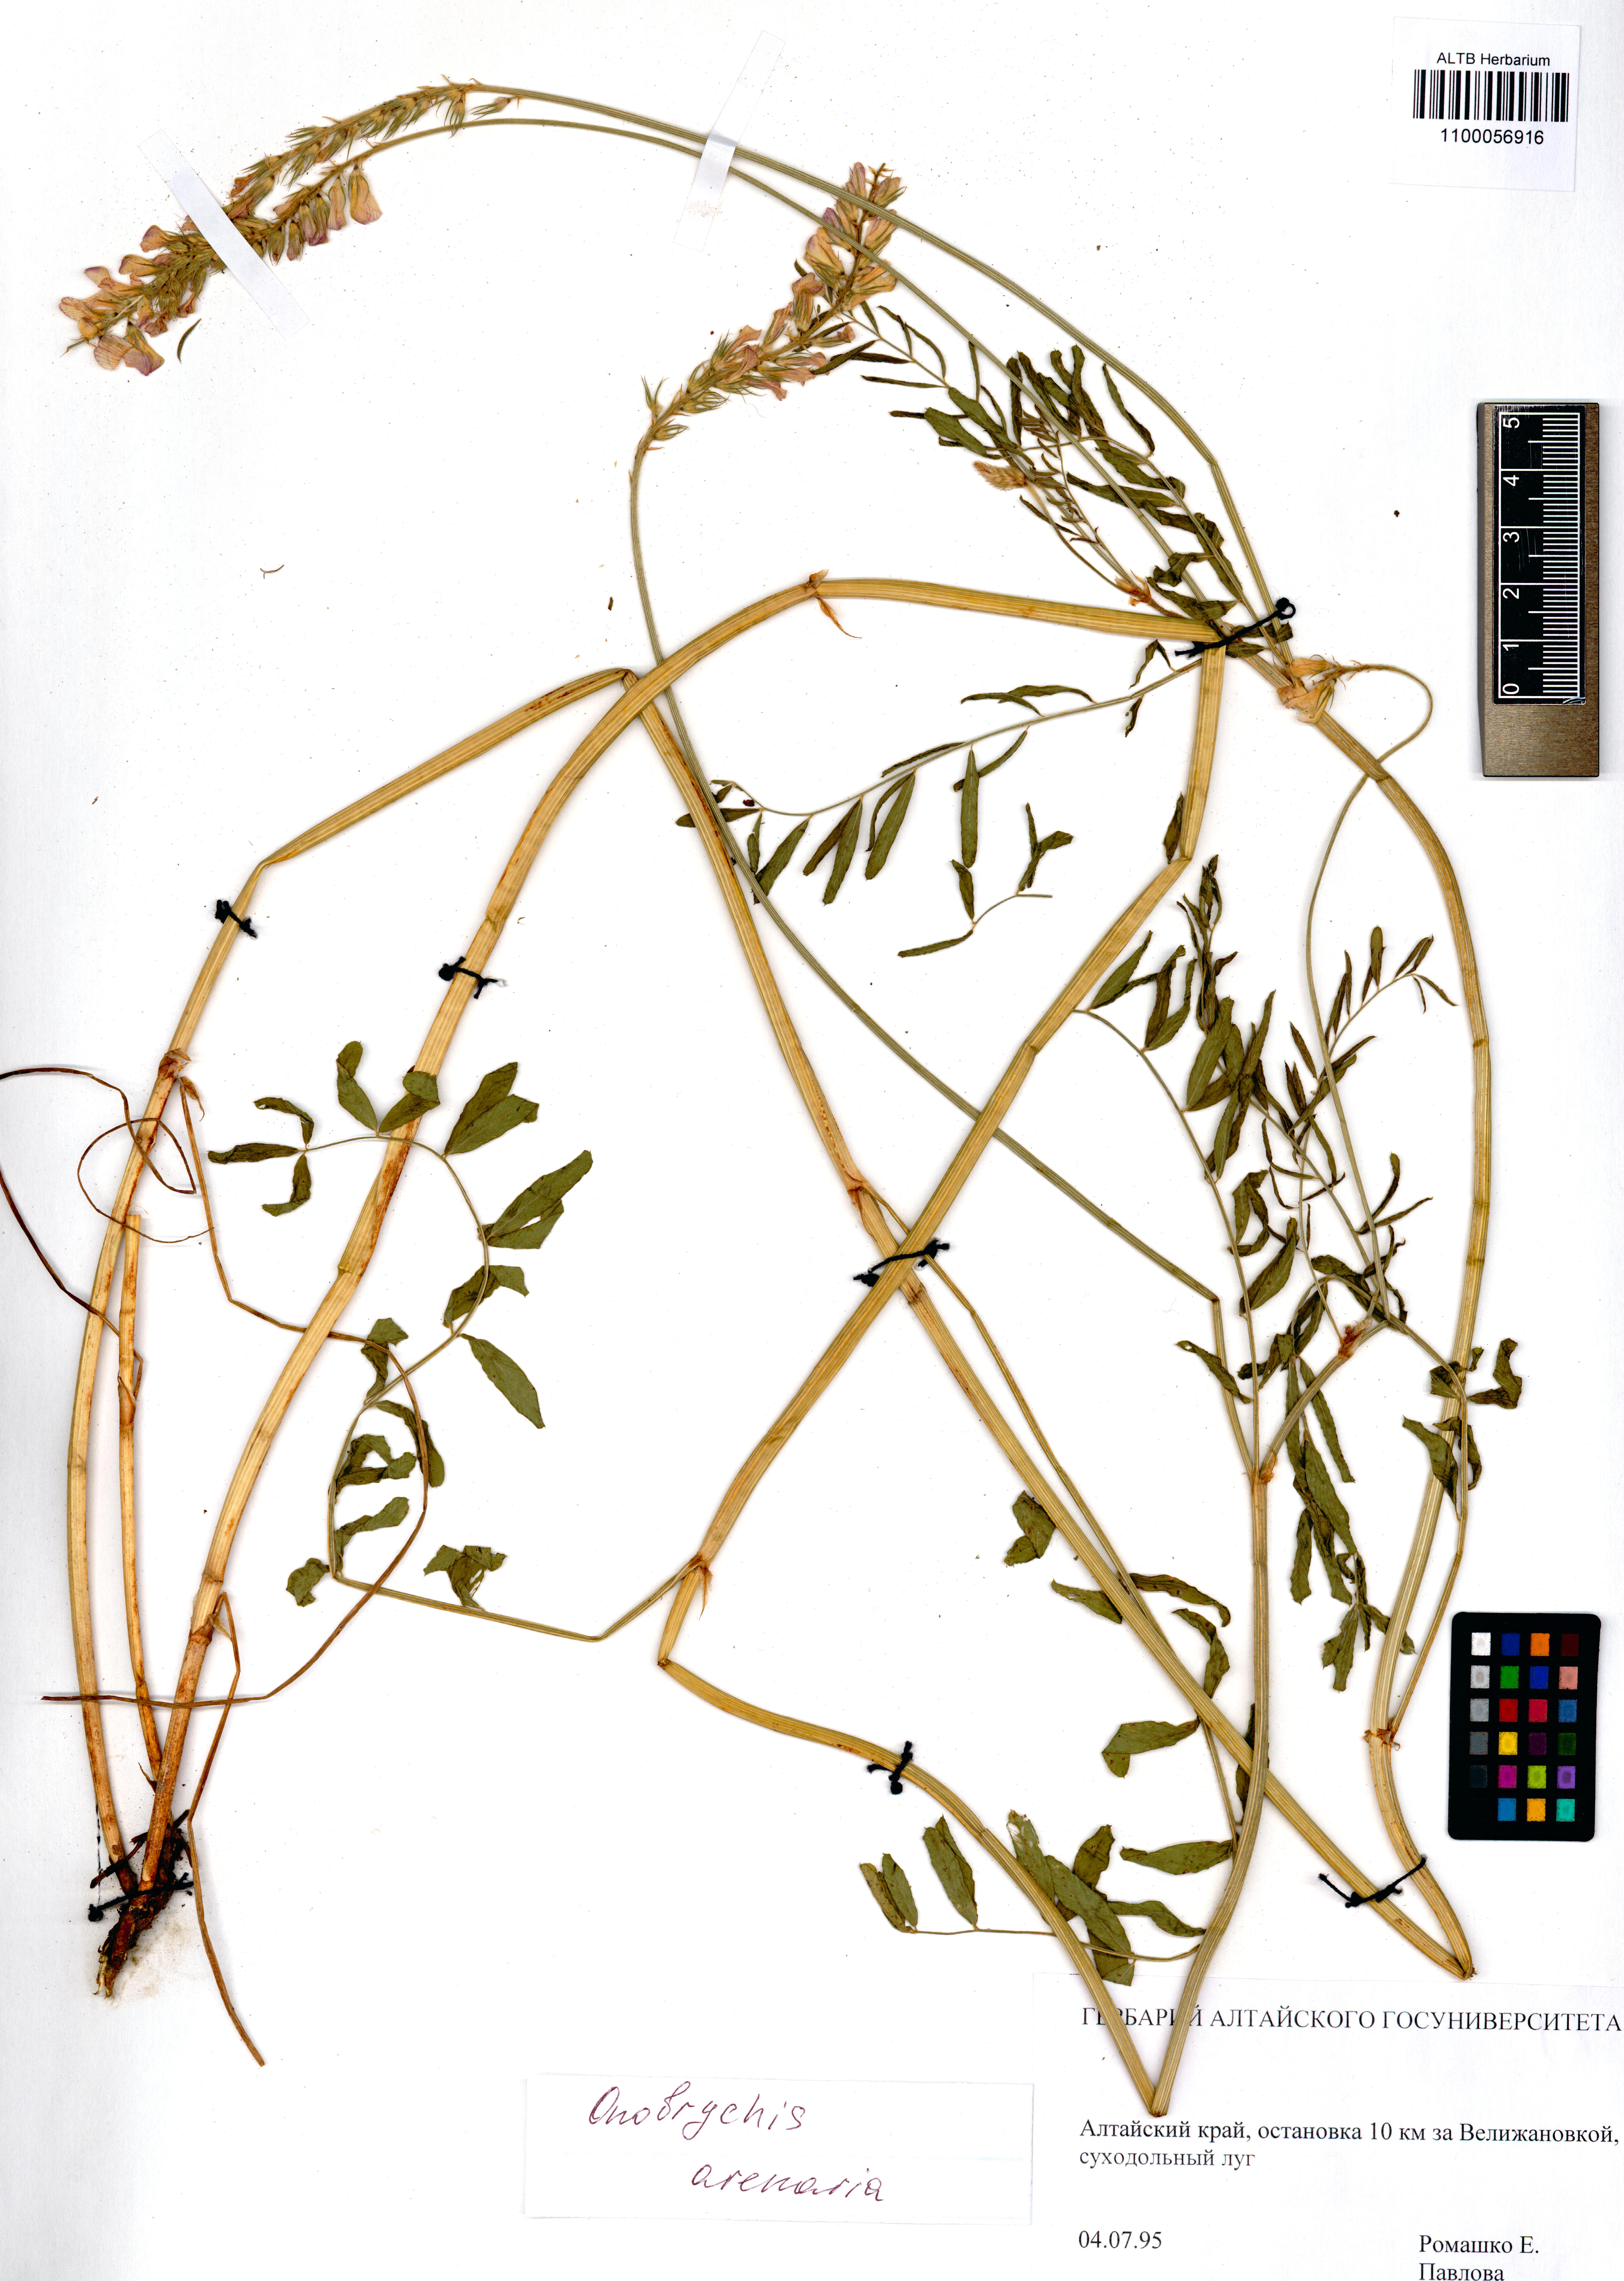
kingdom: Plantae
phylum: Tracheophyta
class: Magnoliopsida
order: Fabales
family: Fabaceae
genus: Onobrychis
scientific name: Onobrychis arenaria
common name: Sand esparcet
